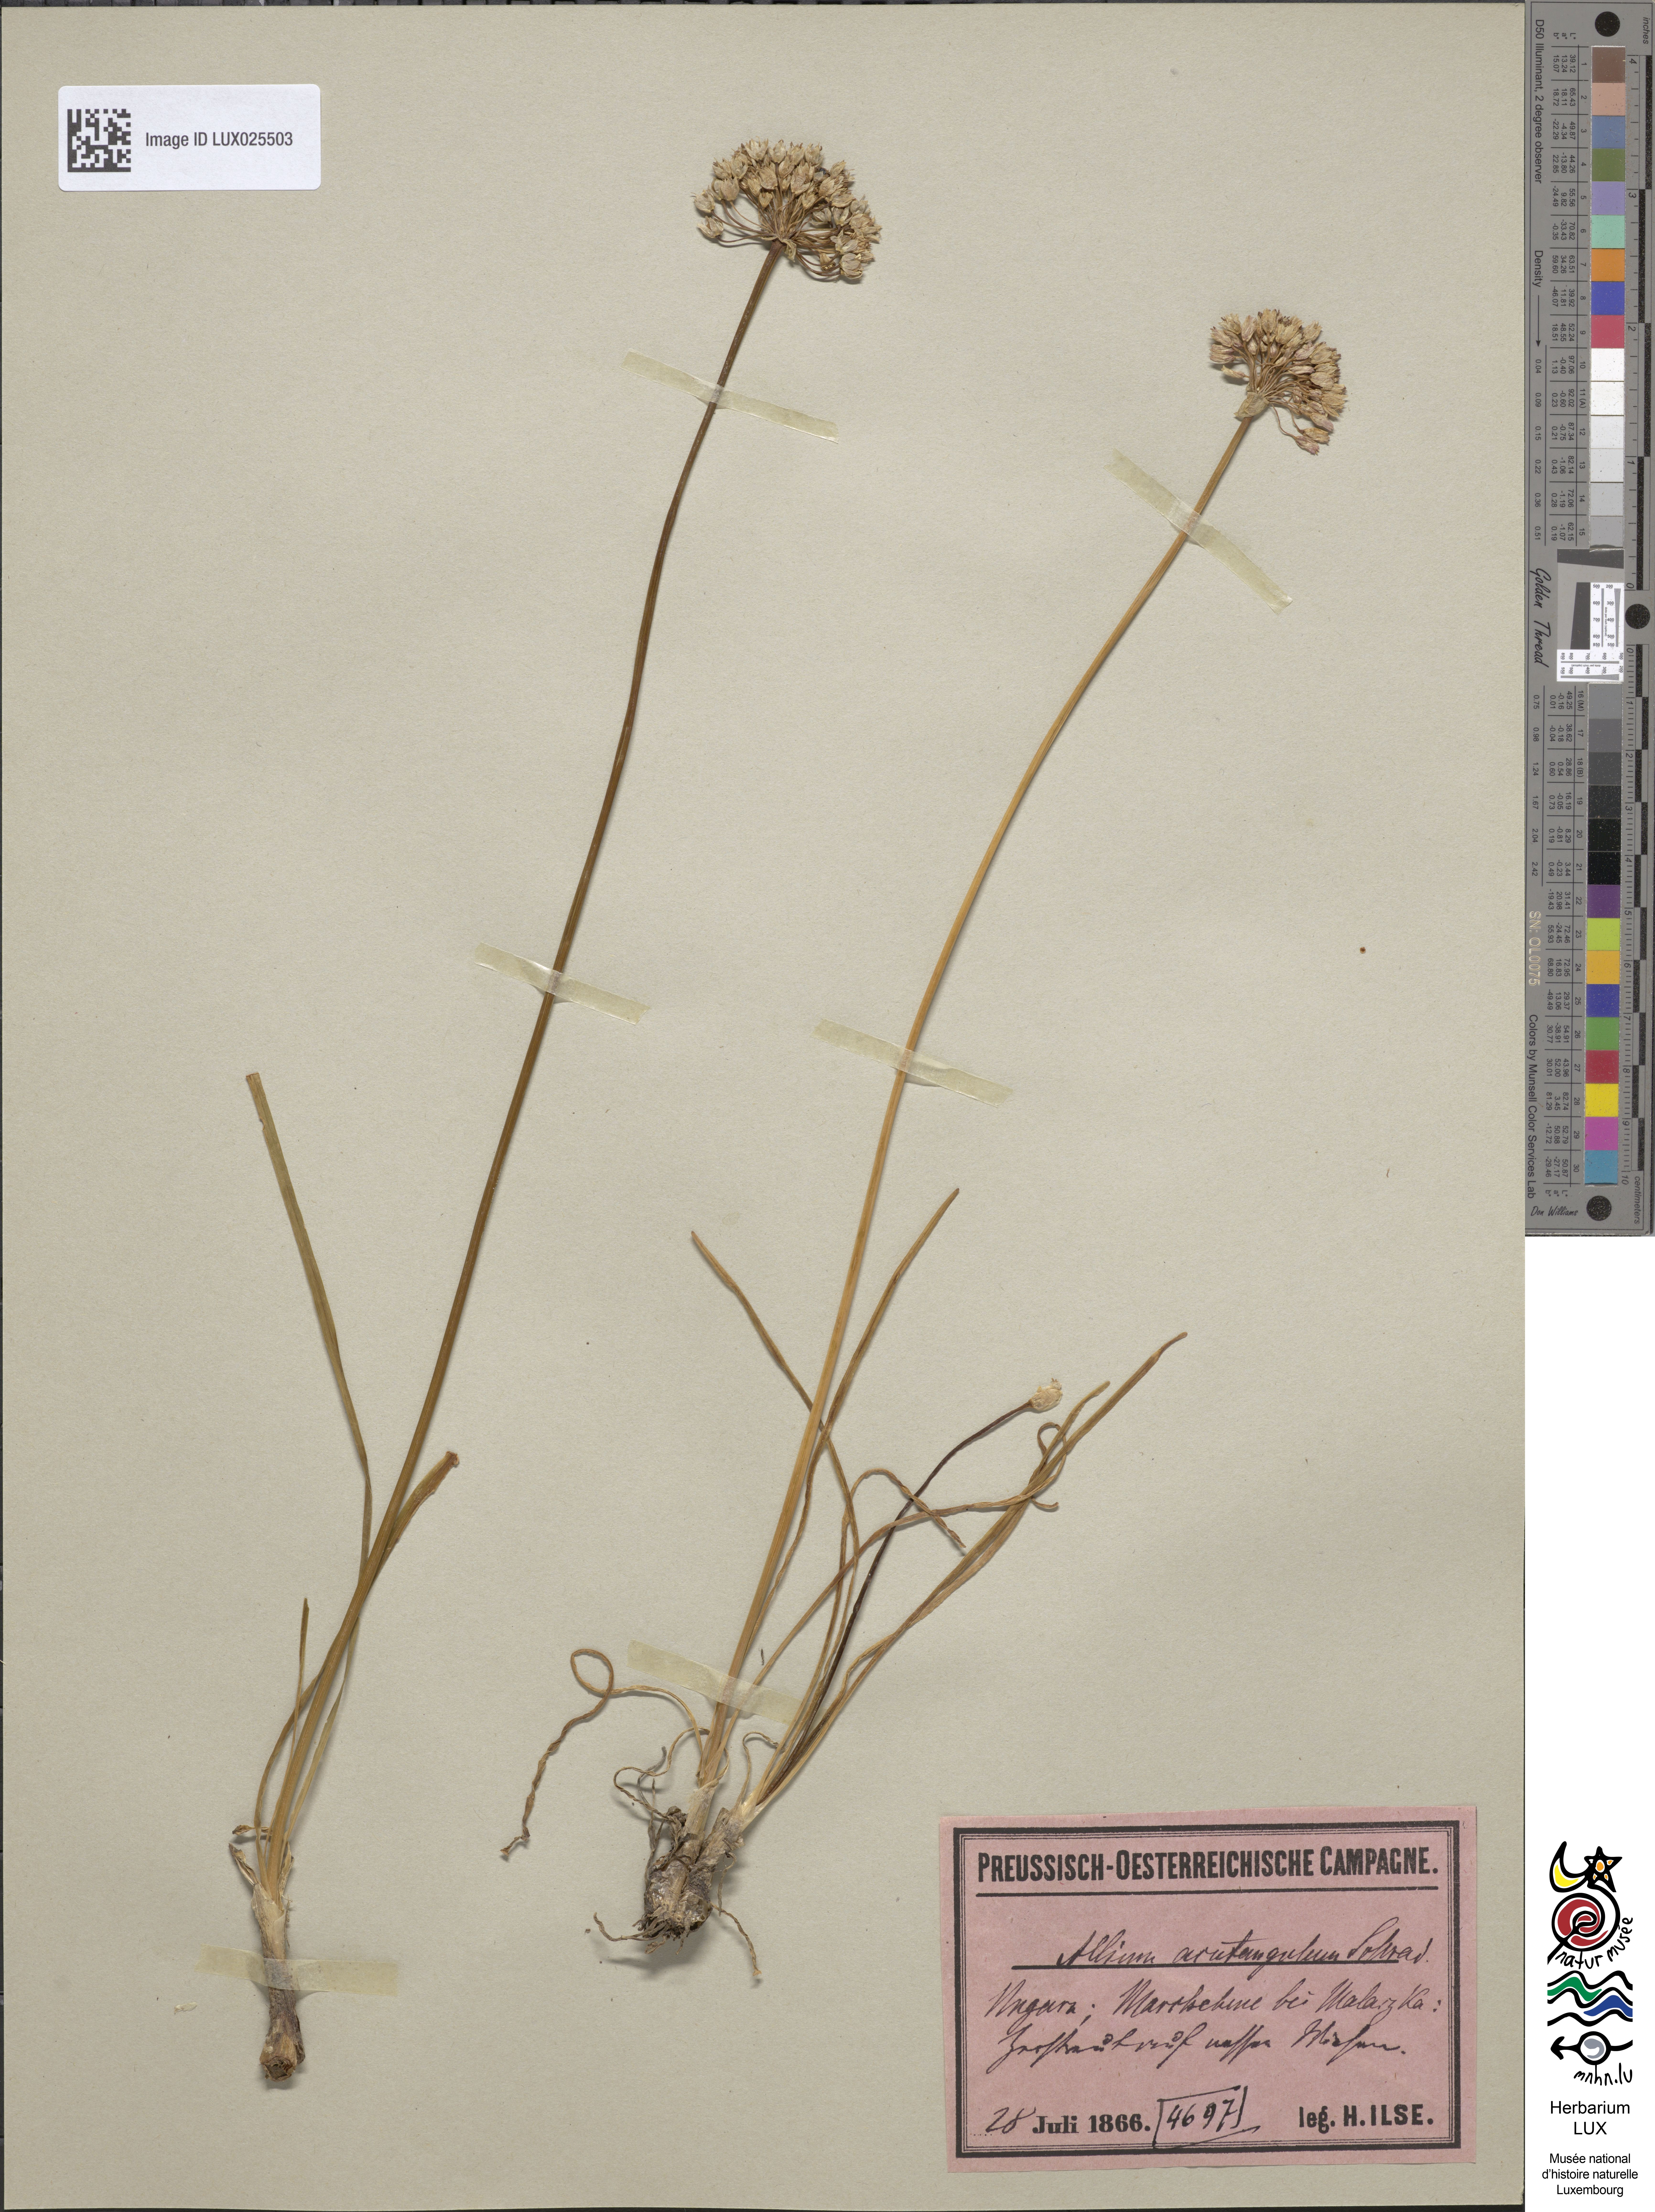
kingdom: Plantae
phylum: Tracheophyta
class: Liliopsida
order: Asparagales
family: Amaryllidaceae
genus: Allium
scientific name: Allium angulosum
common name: Mouse garlic
